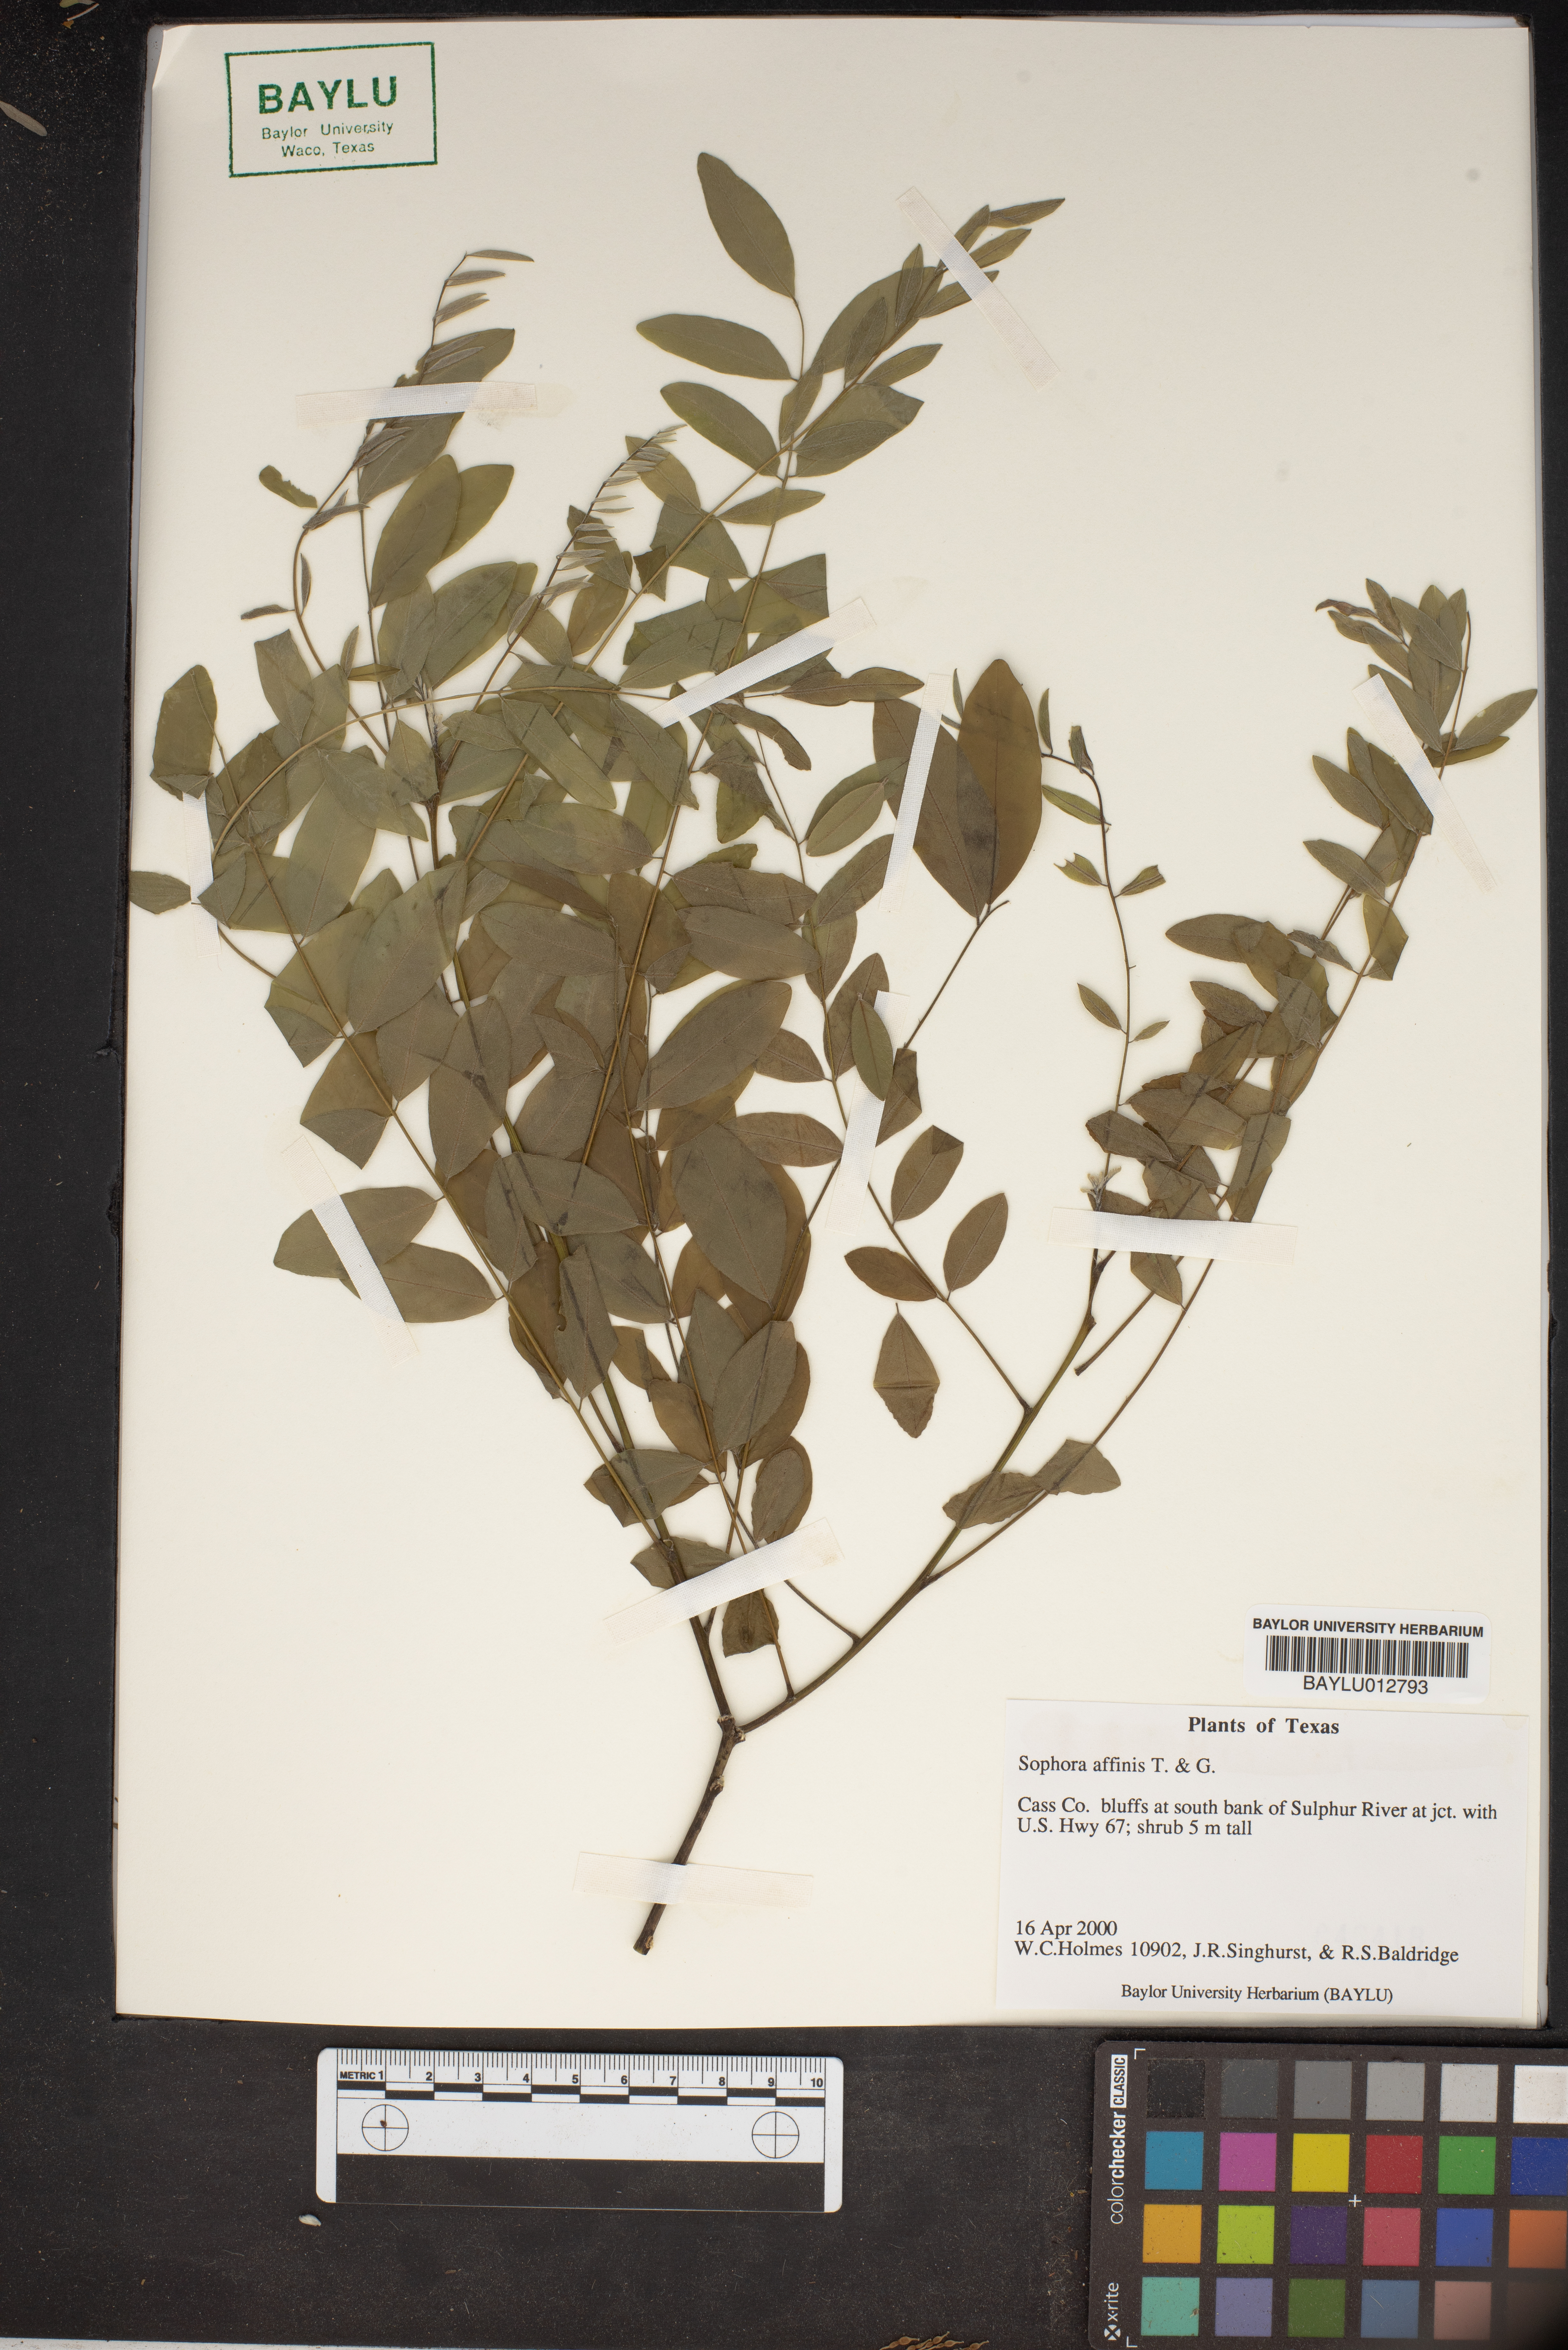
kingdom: Plantae
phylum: Tracheophyta
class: Magnoliopsida
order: Fabales
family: Fabaceae
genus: Styphnolobium
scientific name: Styphnolobium affine
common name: Texas sophora
